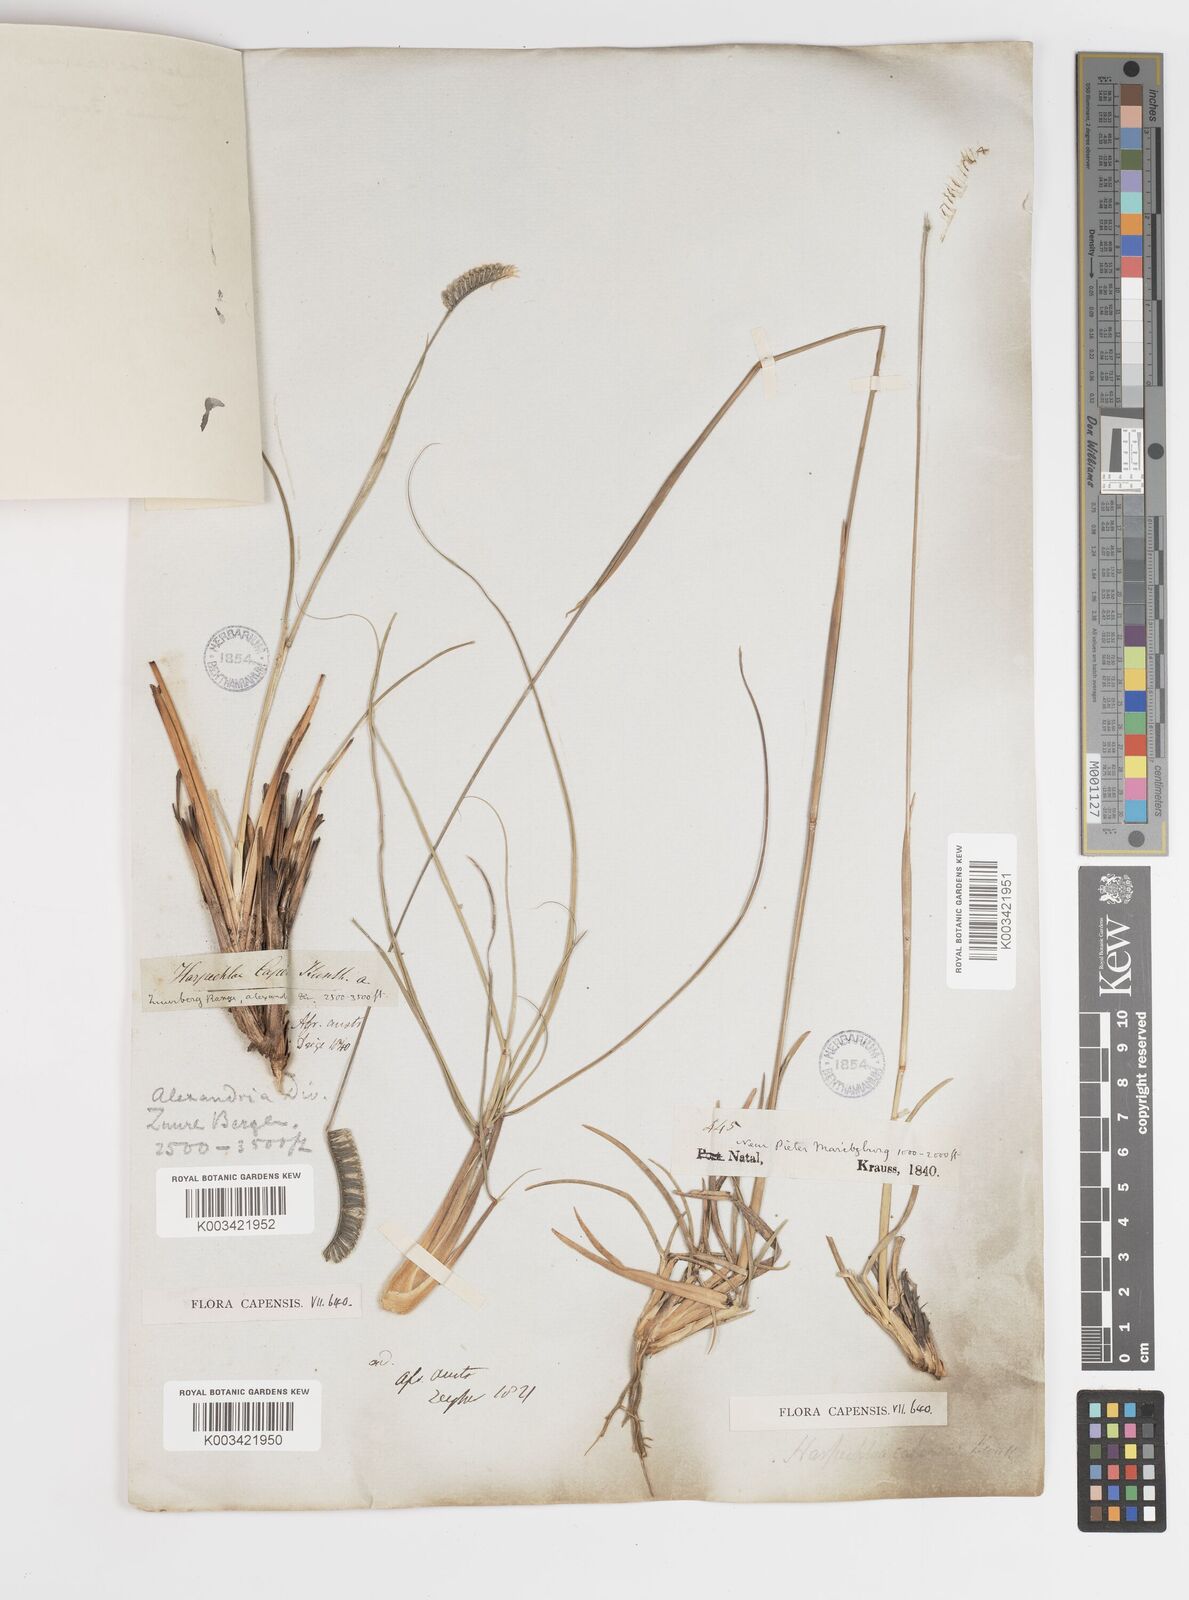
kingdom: Plantae
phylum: Tracheophyta
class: Liliopsida
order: Poales
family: Poaceae
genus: Harpochloa
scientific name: Harpochloa falx
